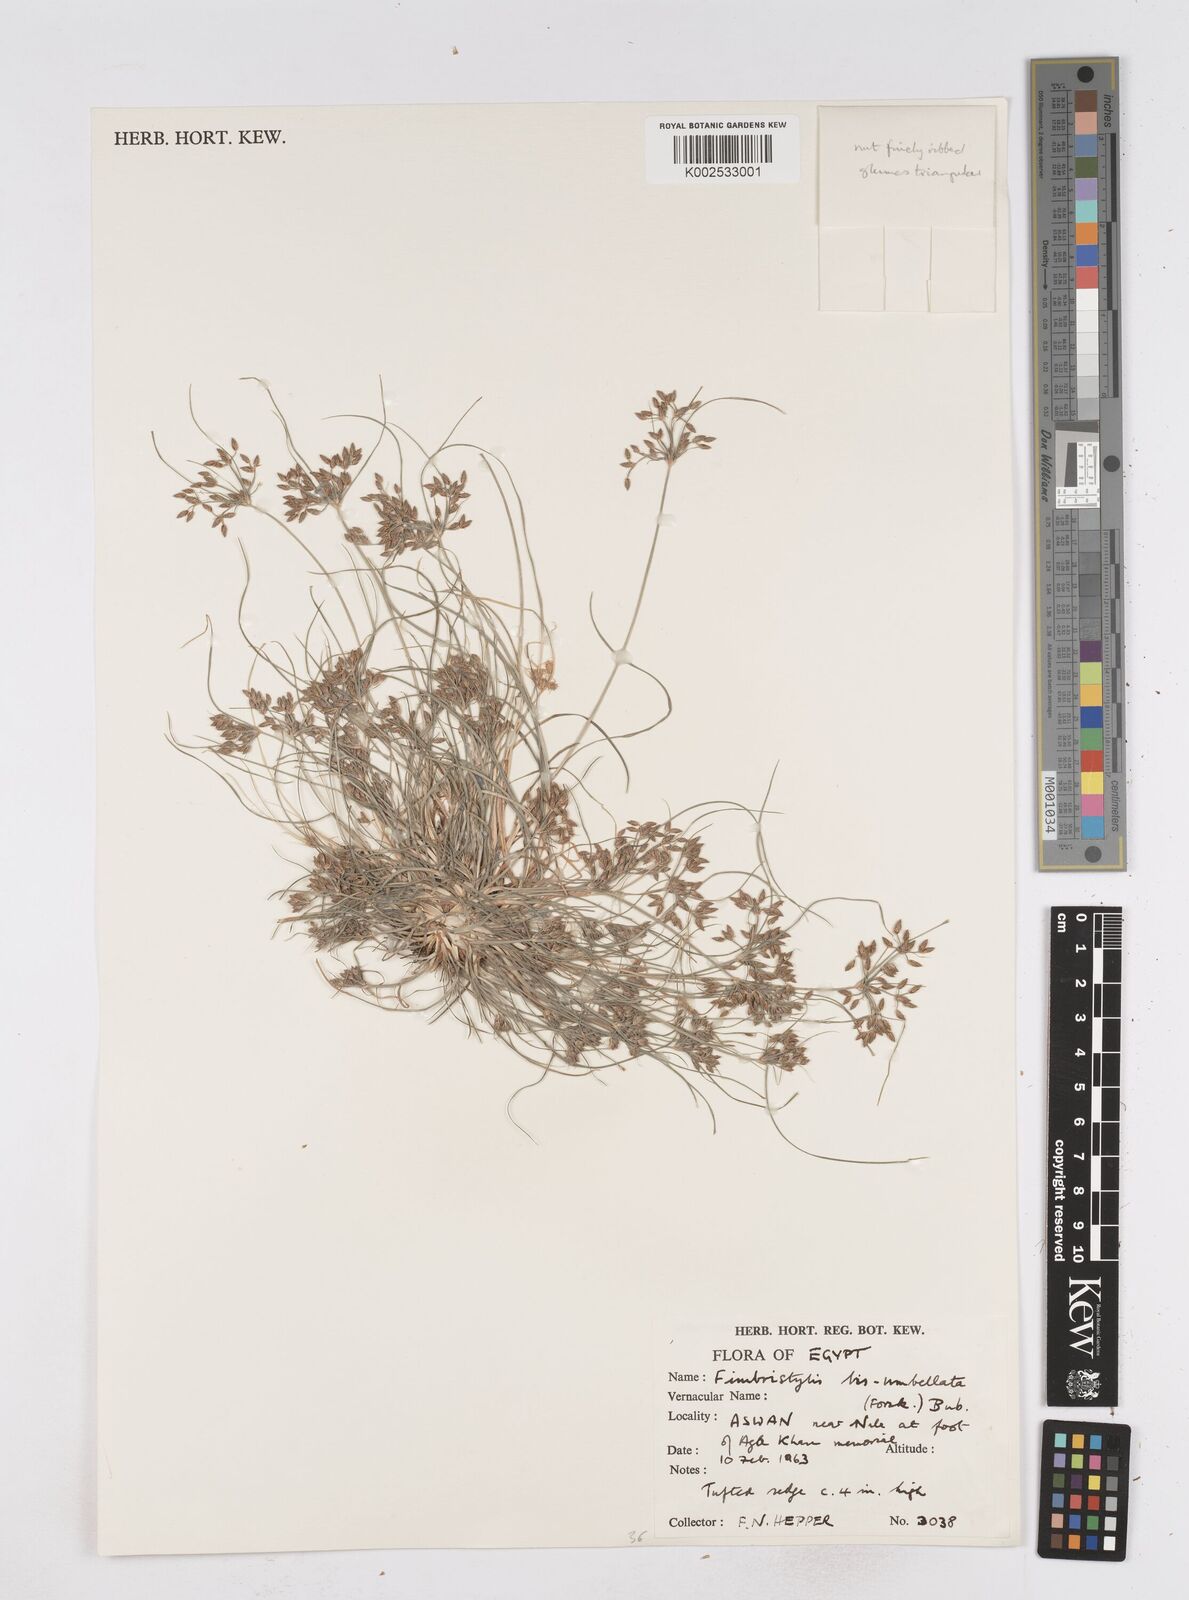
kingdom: Plantae
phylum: Tracheophyta
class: Liliopsida
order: Poales
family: Cyperaceae
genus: Fimbristylis
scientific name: Fimbristylis bisumbellata
